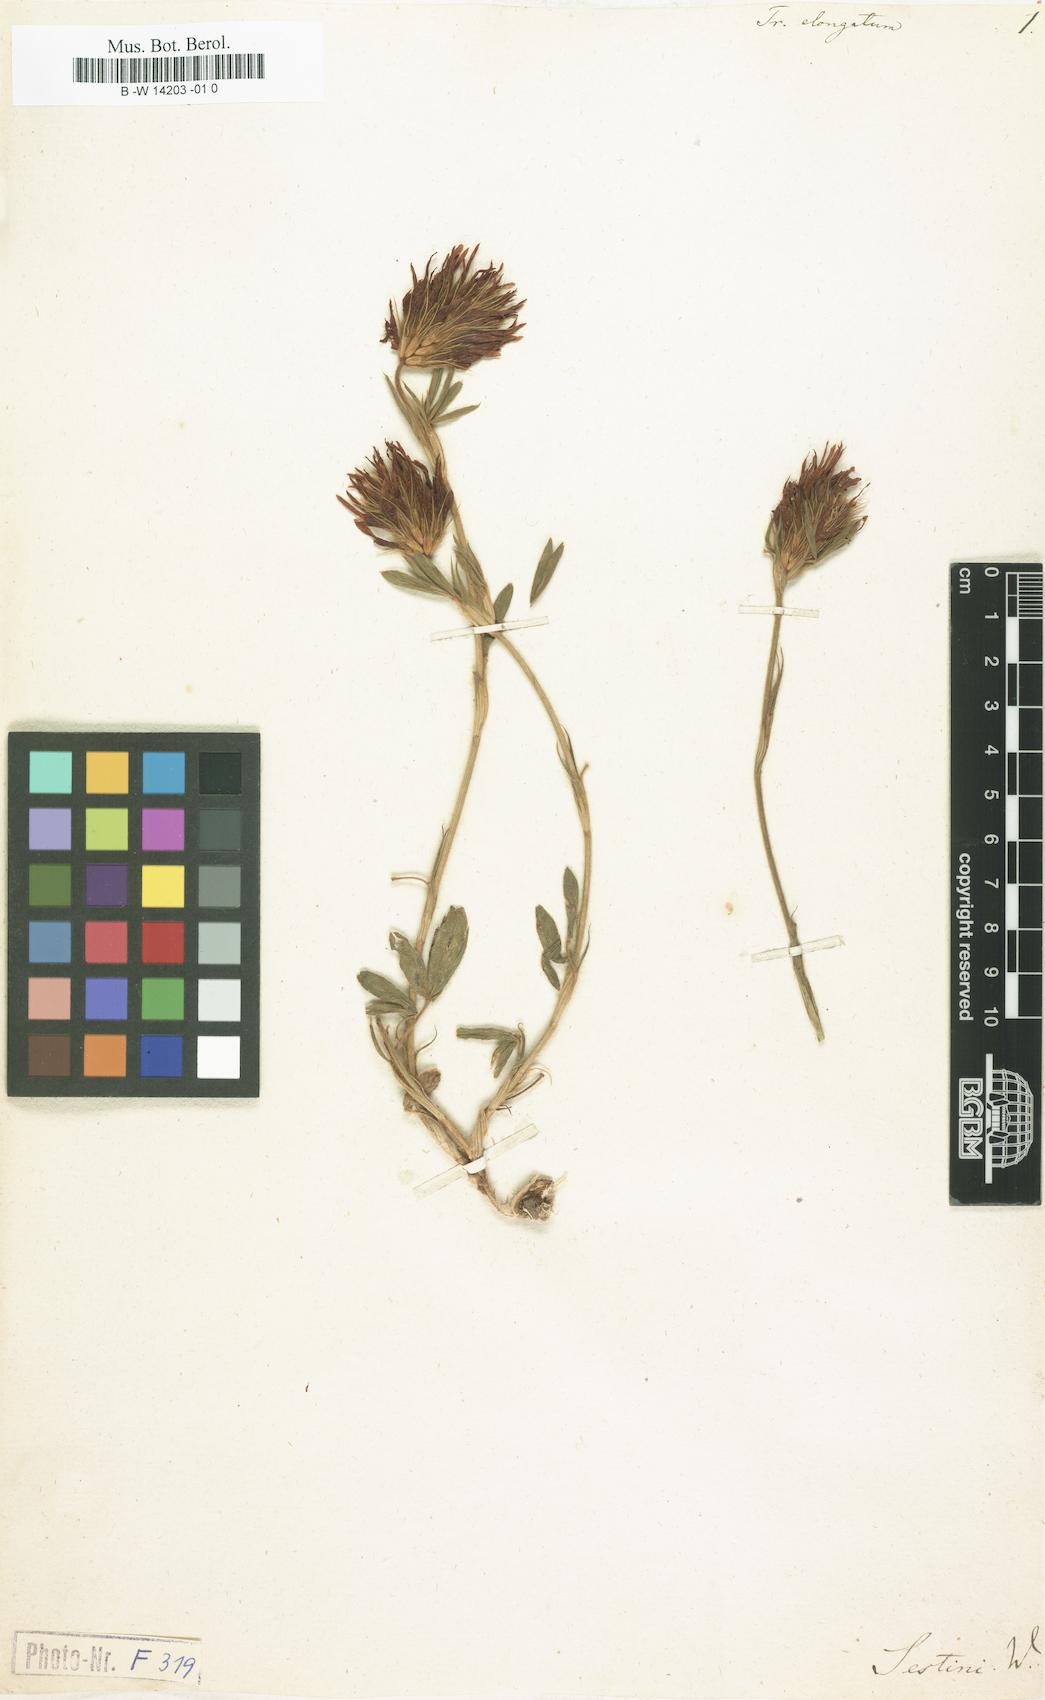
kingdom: Plantae
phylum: Tracheophyta
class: Magnoliopsida
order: Fabales
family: Fabaceae
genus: Trifolium
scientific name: Trifolium pannonicum
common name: Hungarian clover
